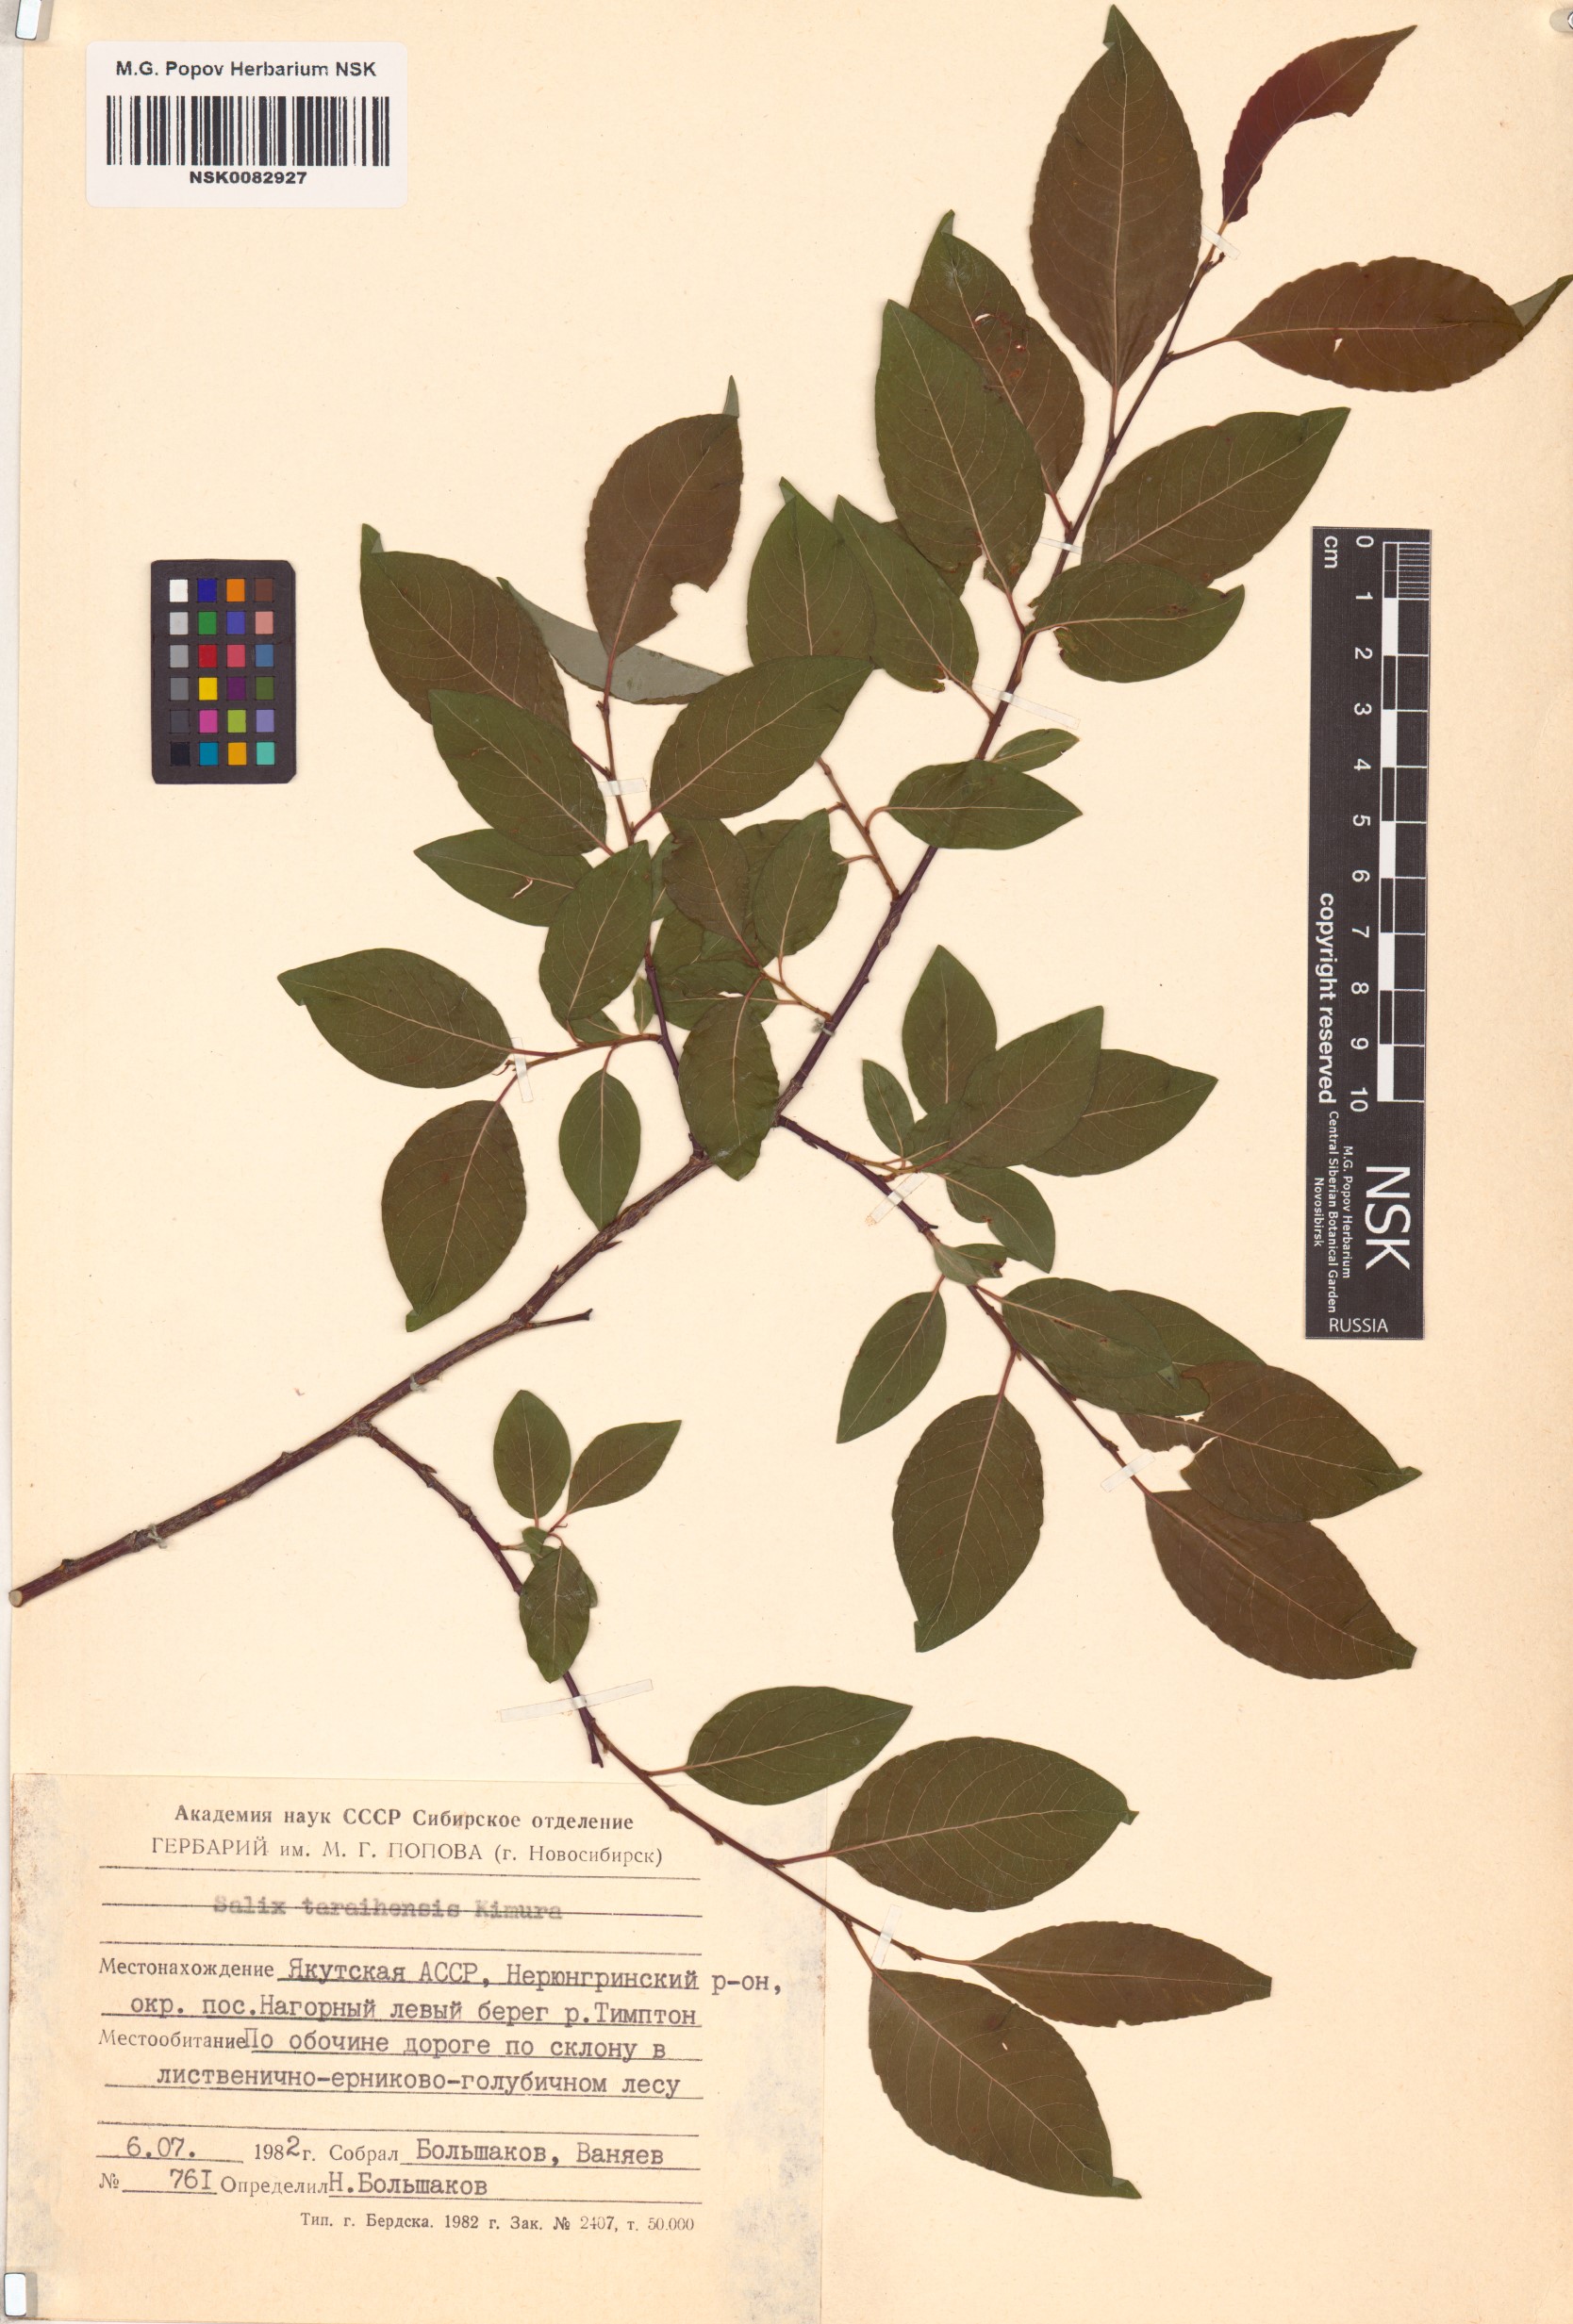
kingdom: Plantae
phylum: Tracheophyta
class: Magnoliopsida
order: Malpighiales
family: Salicaceae
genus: Salix
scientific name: Salix taraikensis
